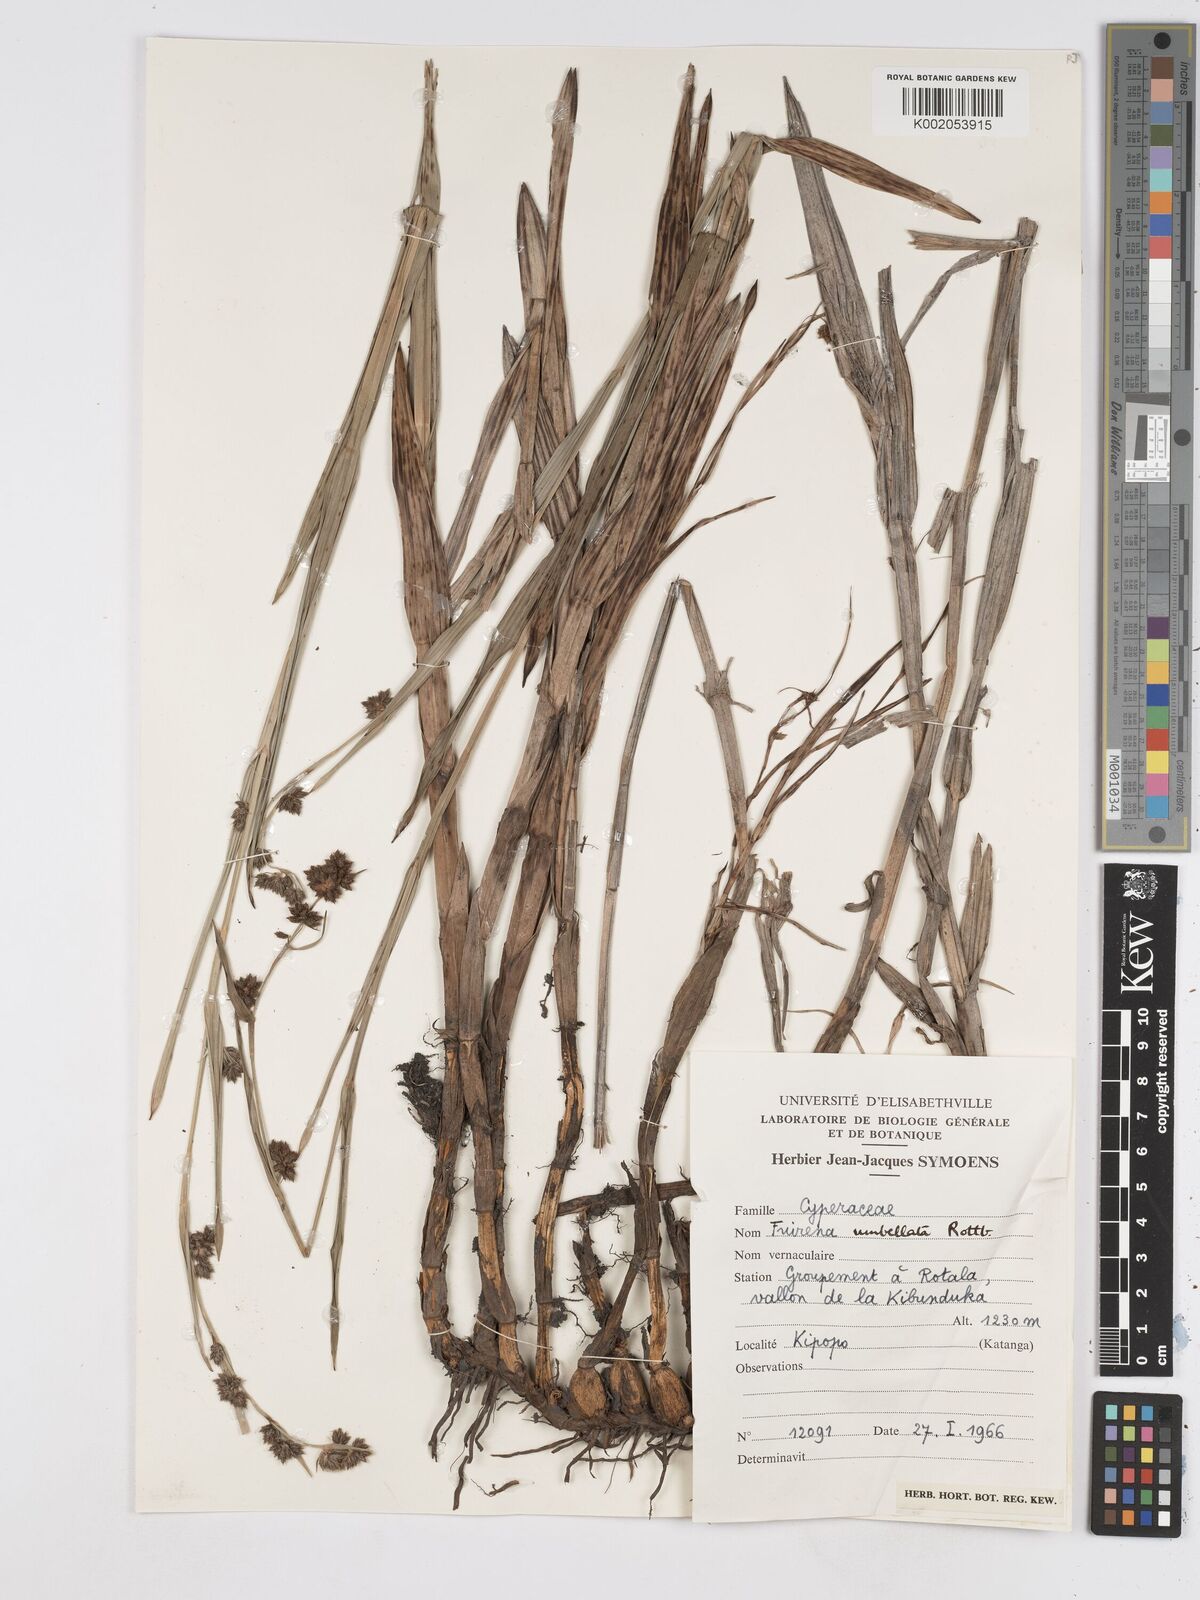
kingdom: Plantae
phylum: Tracheophyta
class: Liliopsida
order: Poales
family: Cyperaceae
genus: Fuirena
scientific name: Fuirena umbellata
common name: Yefen
